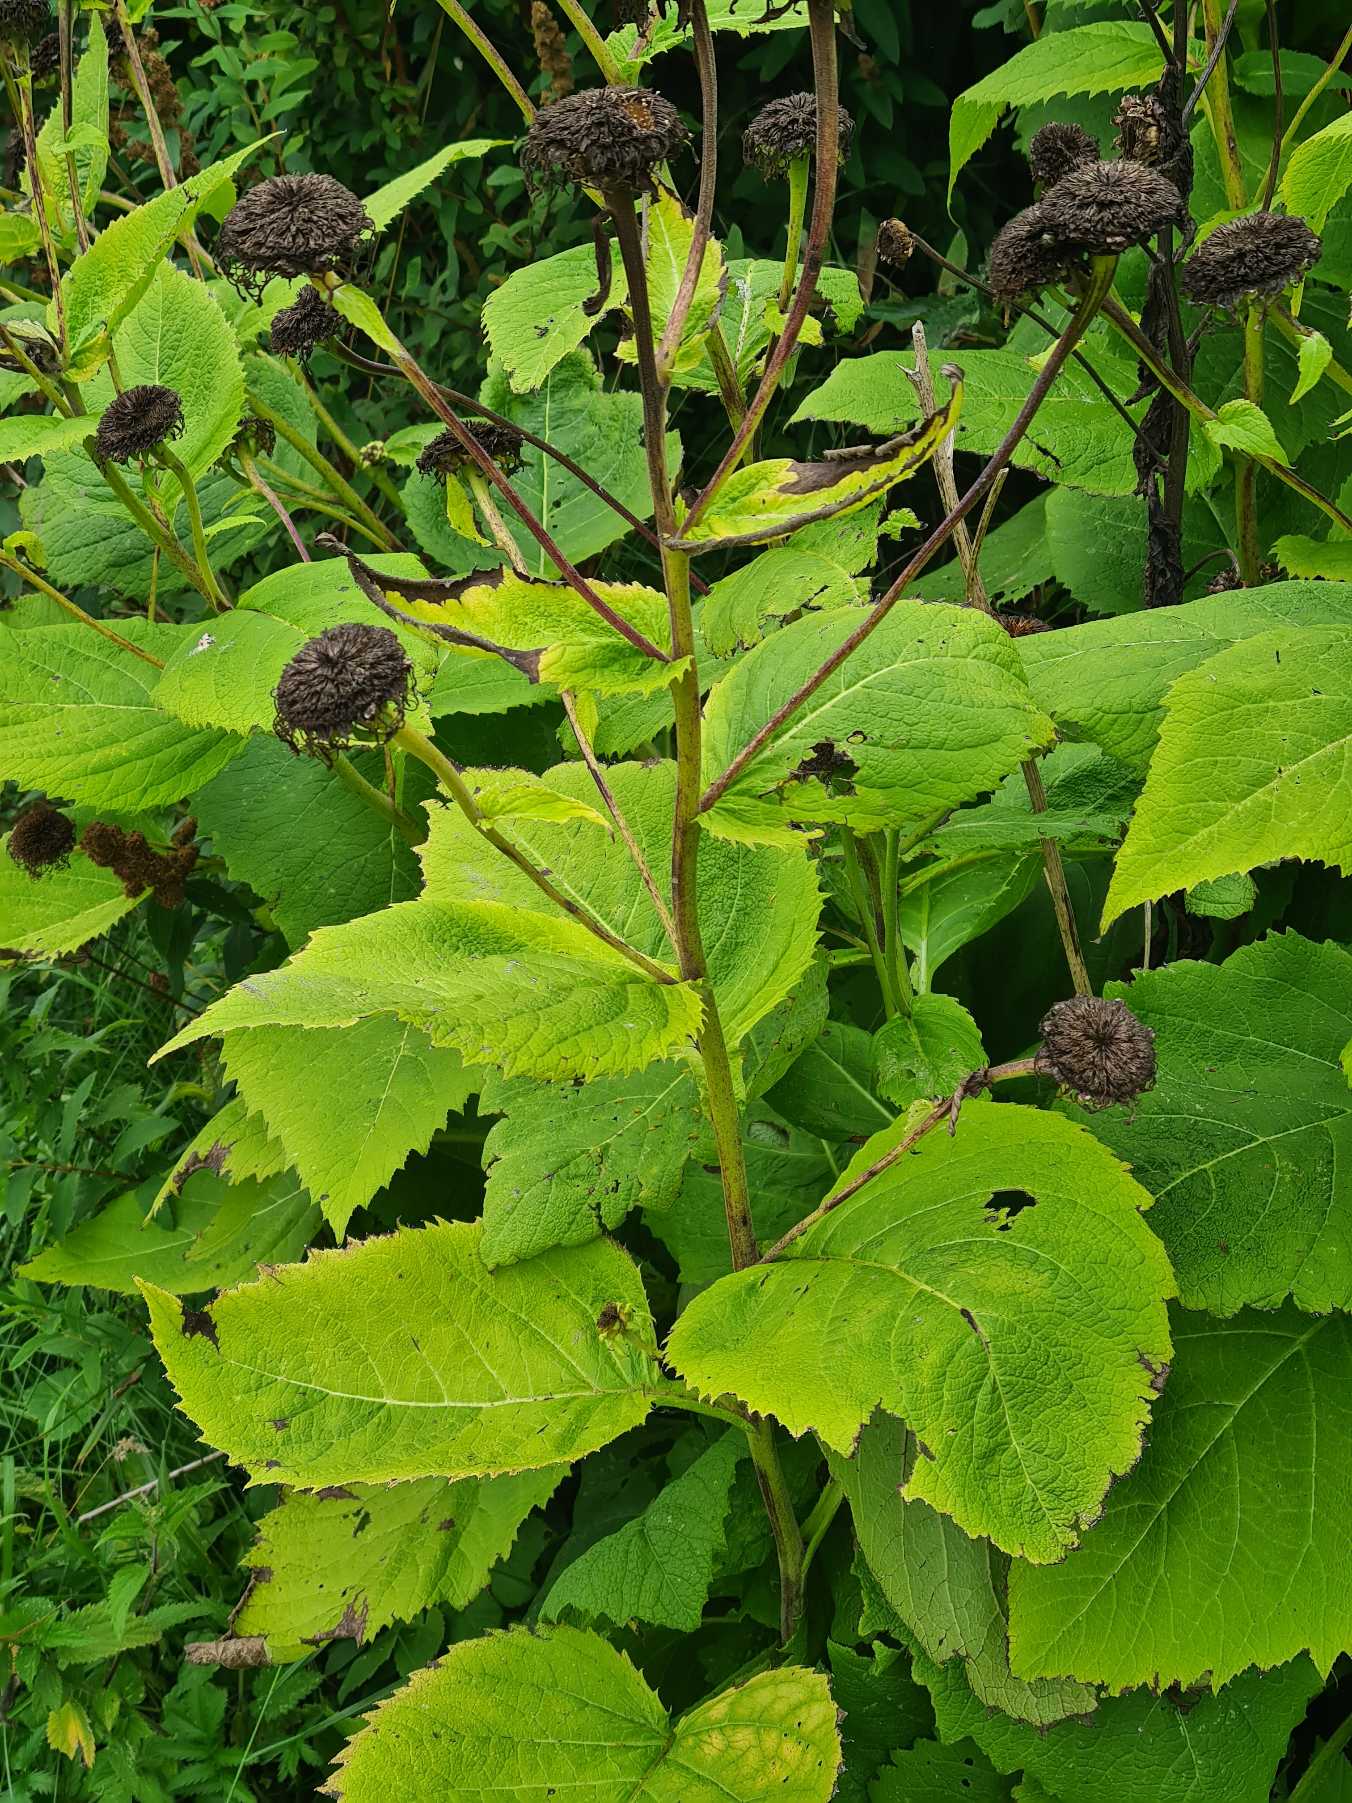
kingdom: Plantae
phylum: Tracheophyta
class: Magnoliopsida
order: Asterales
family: Asteraceae
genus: Telekia
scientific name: Telekia speciosa
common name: Tusindstråle
